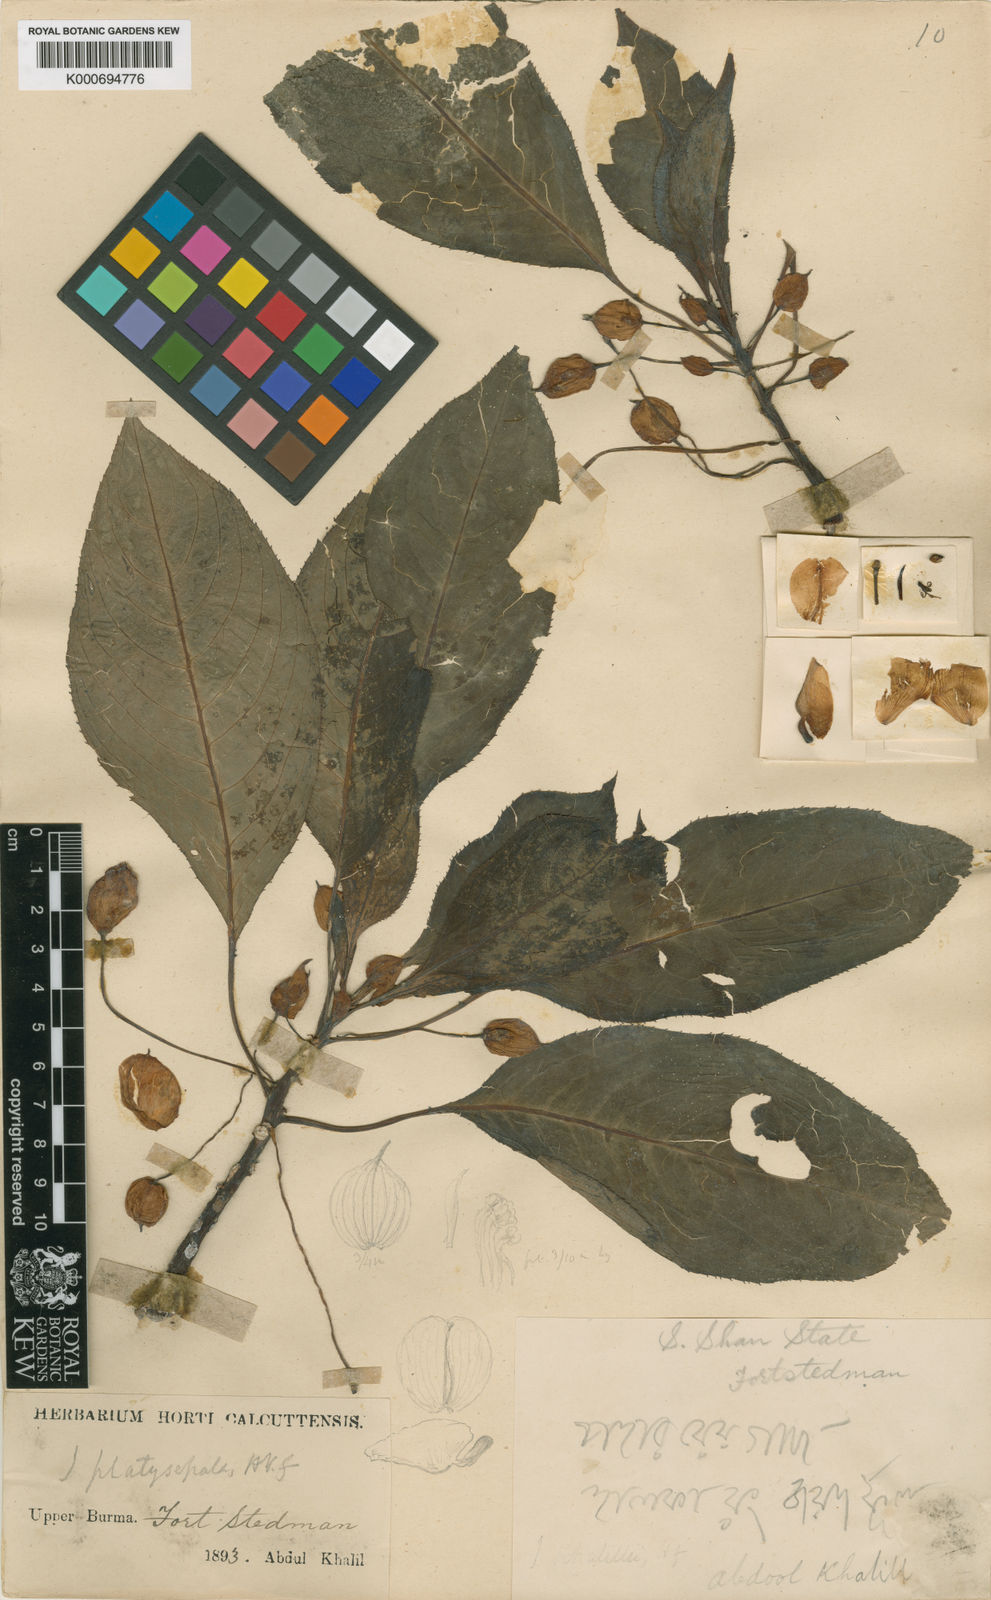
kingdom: Plantae
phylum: Tracheophyta
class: Magnoliopsida
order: Ericales
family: Balsaminaceae
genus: Impatiens
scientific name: Impatiens platysepala
